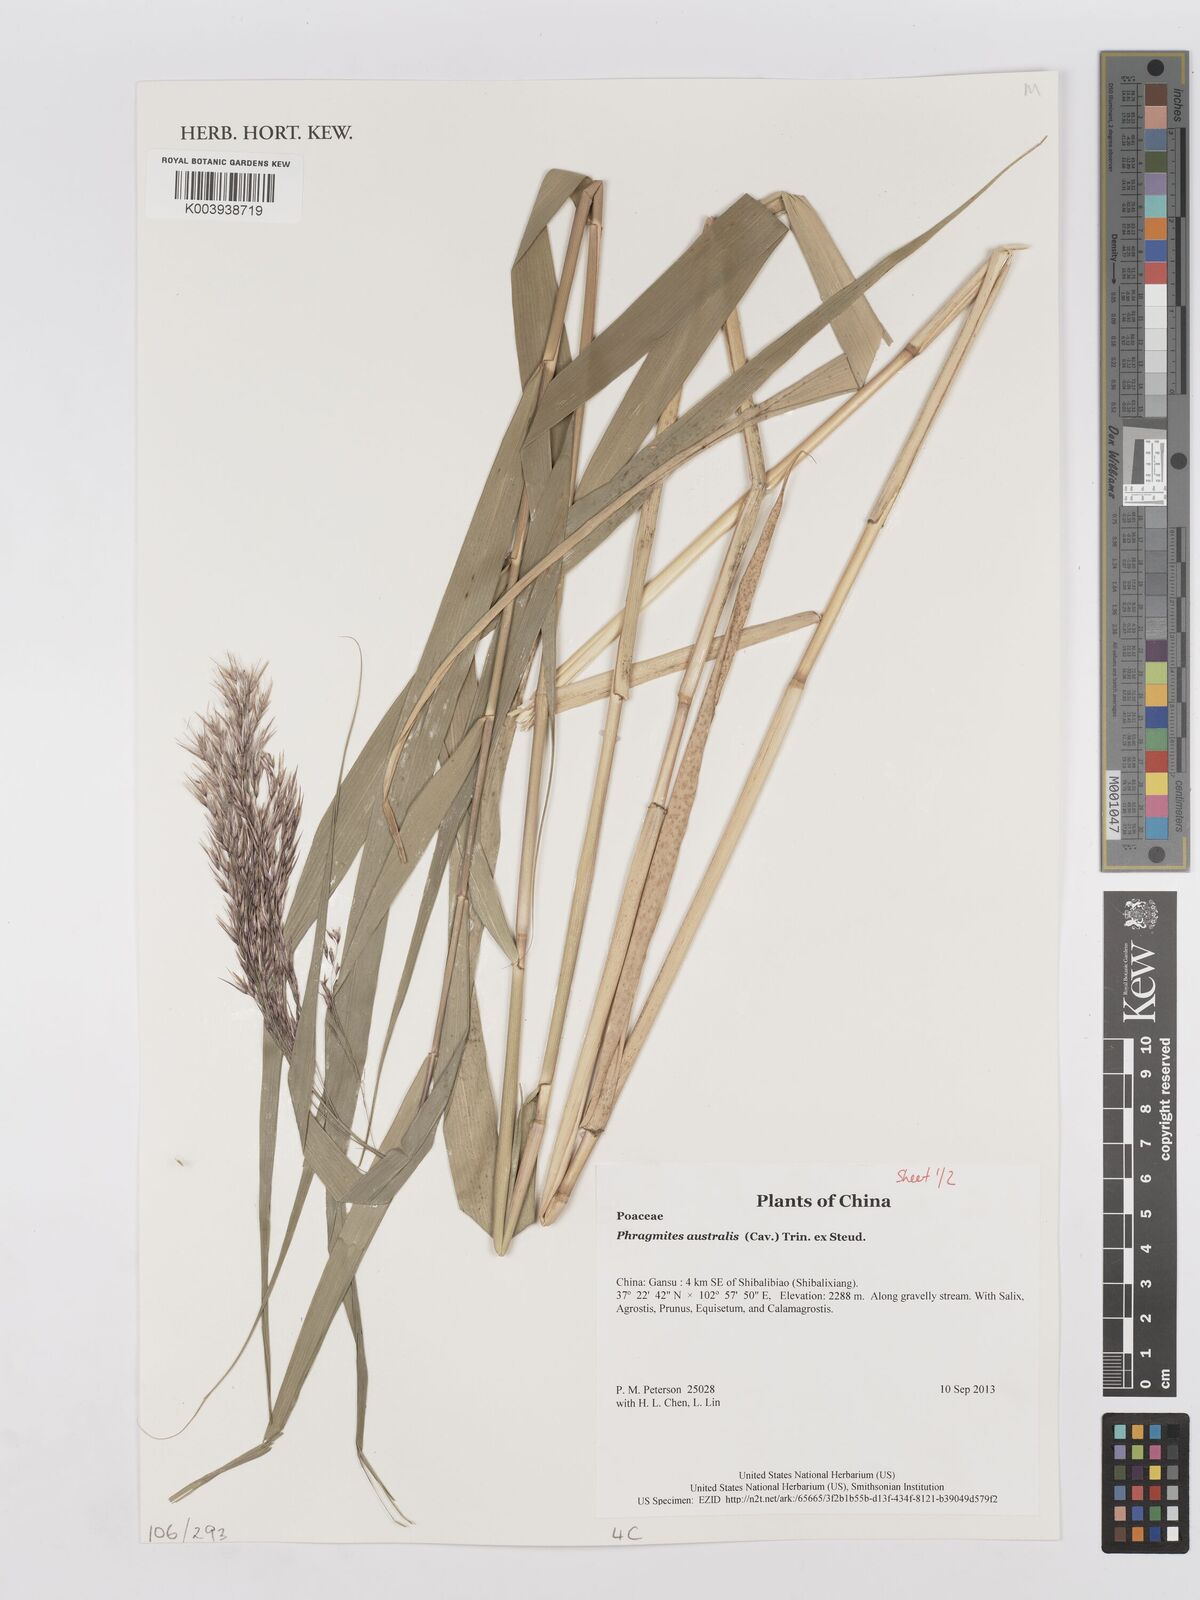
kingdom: Plantae
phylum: Tracheophyta
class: Liliopsida
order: Poales
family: Poaceae
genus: Phragmites
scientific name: Phragmites australis
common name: Common reed
